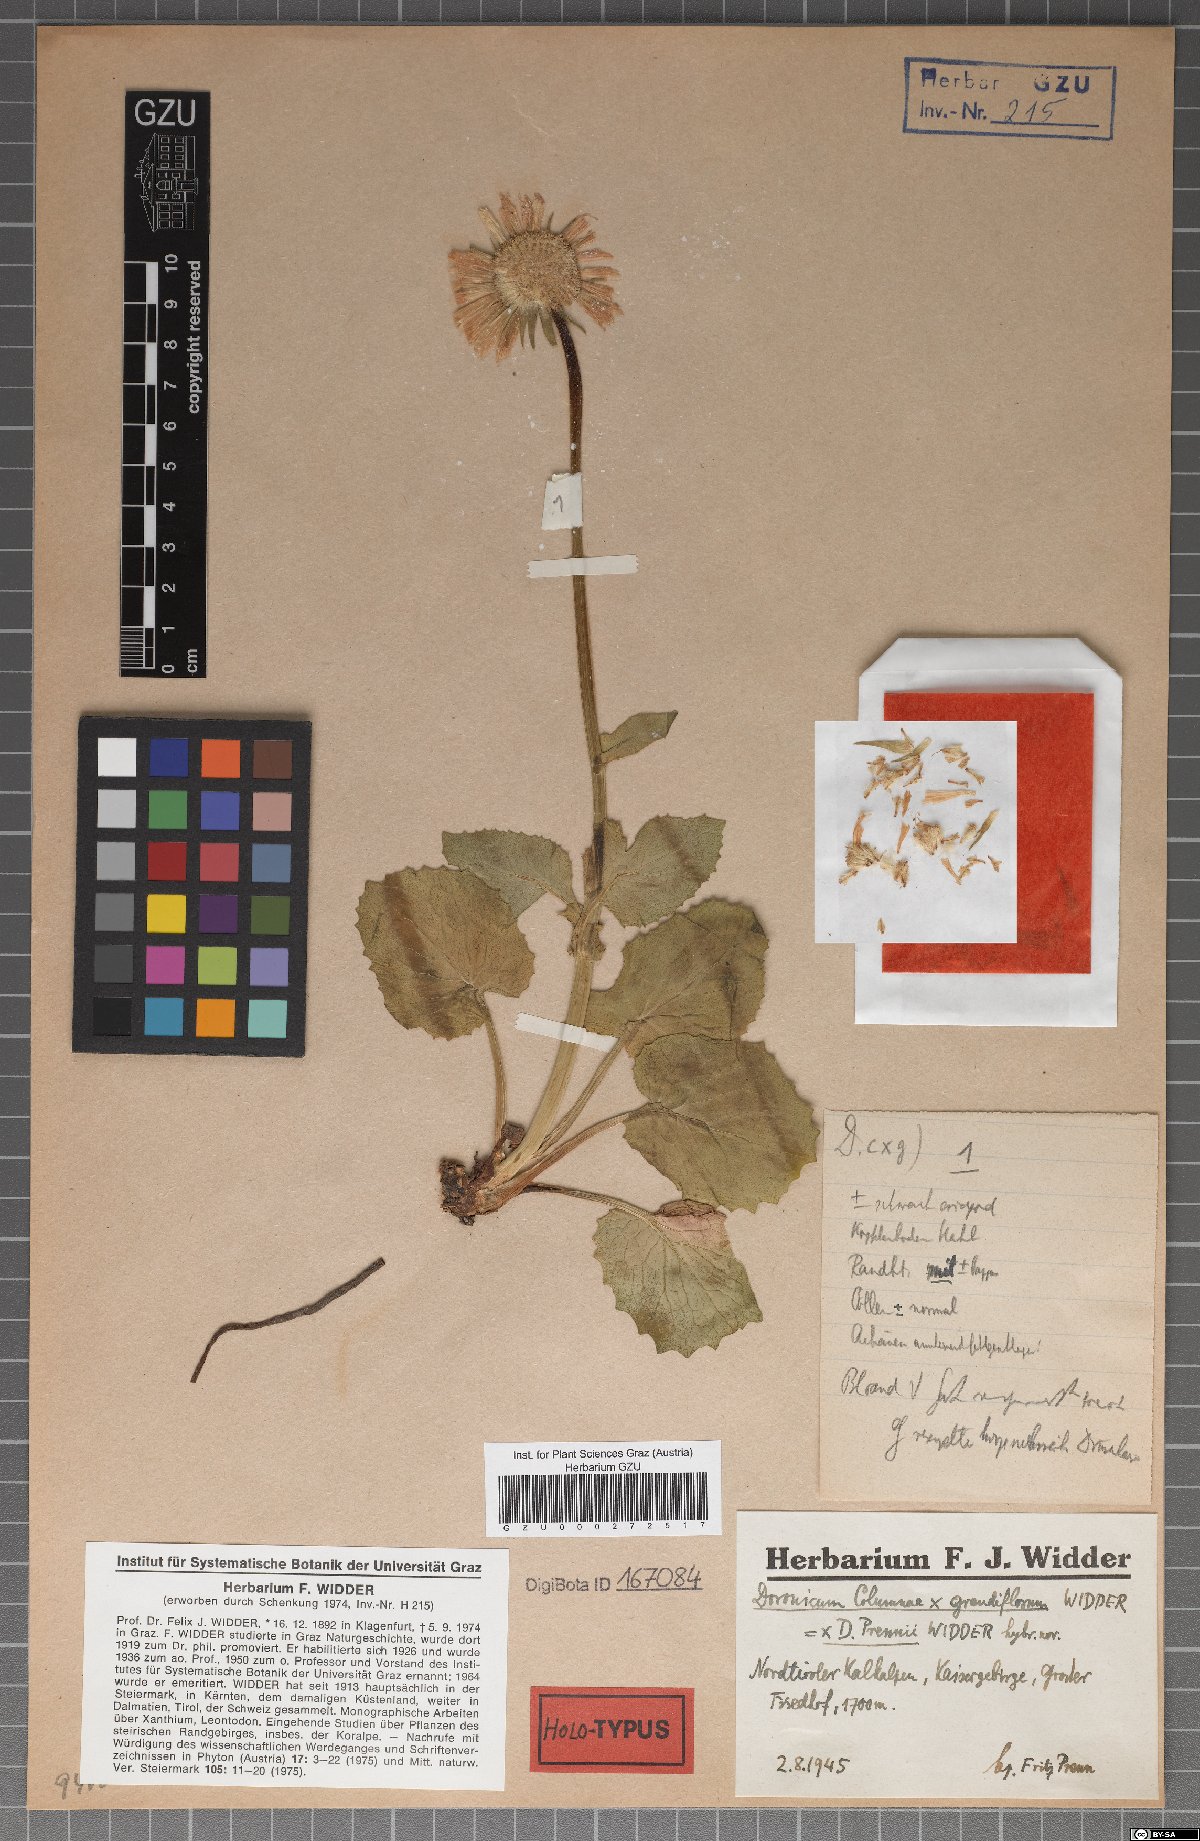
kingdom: Plantae
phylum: Tracheophyta
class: Magnoliopsida
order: Asterales
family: Asteraceae
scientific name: Asteraceae
